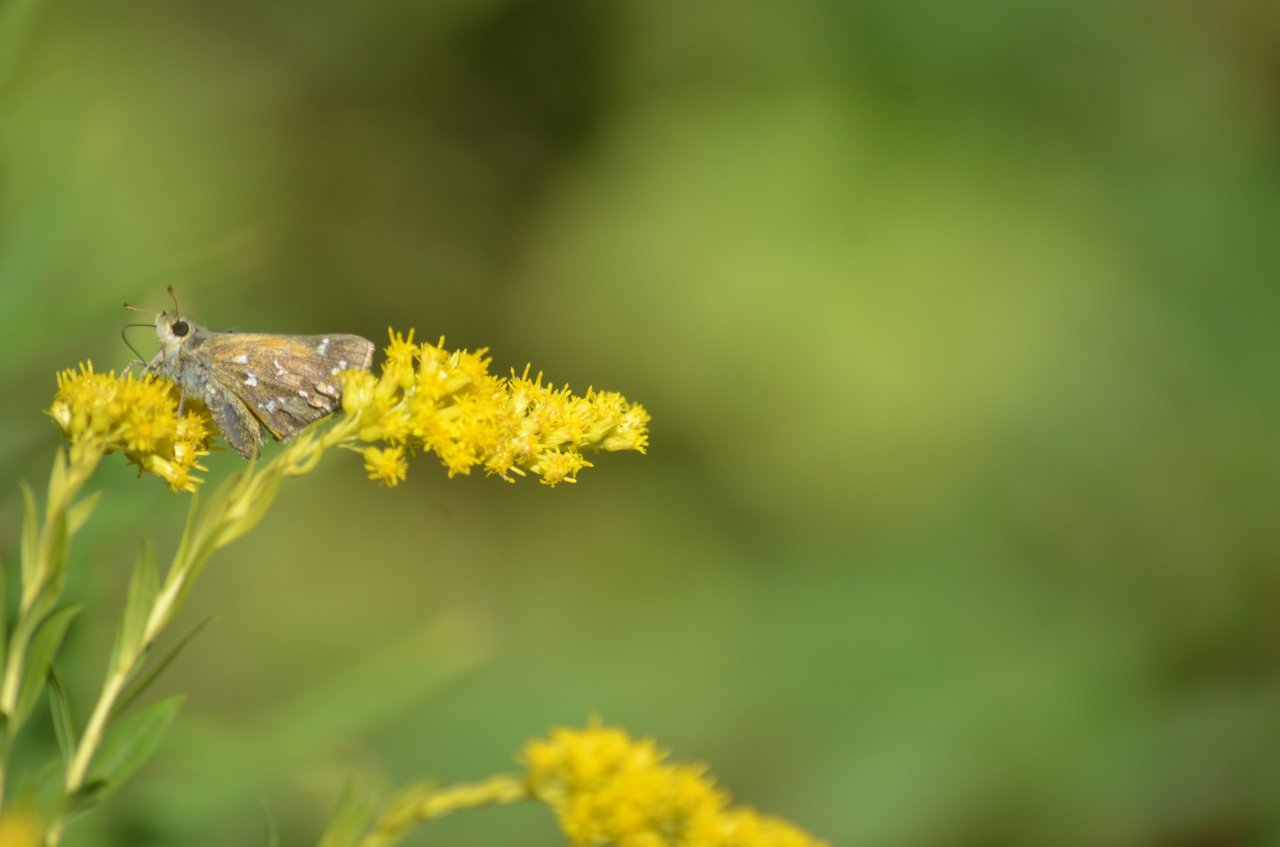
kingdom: Animalia
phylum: Arthropoda
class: Insecta
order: Lepidoptera
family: Hesperiidae
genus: Hesperia
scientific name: Hesperia comma
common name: Common Branded Skipper
